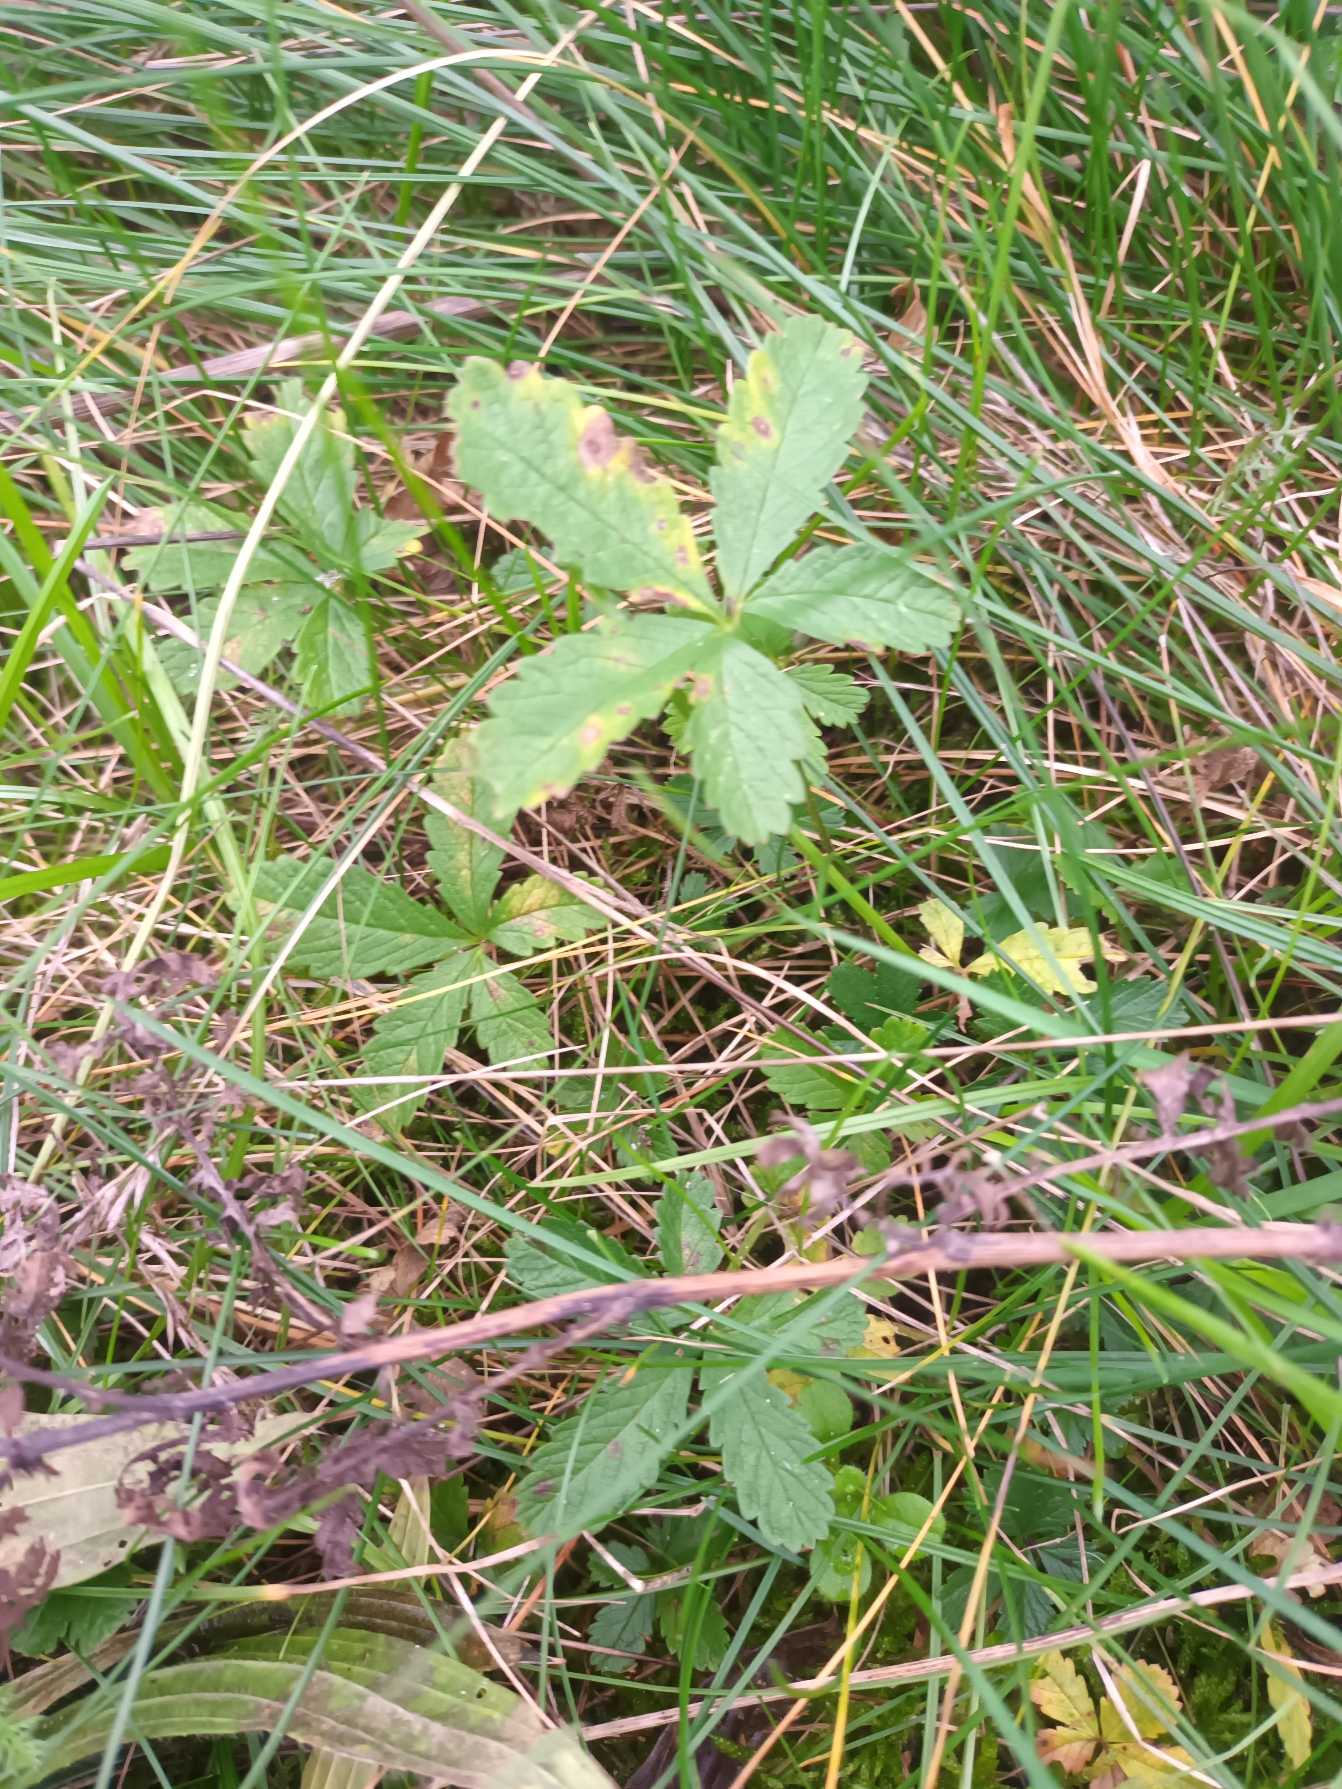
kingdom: Plantae
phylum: Tracheophyta
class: Magnoliopsida
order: Rosales
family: Rosaceae
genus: Potentilla
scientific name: Potentilla reptans
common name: Krybende potentil
